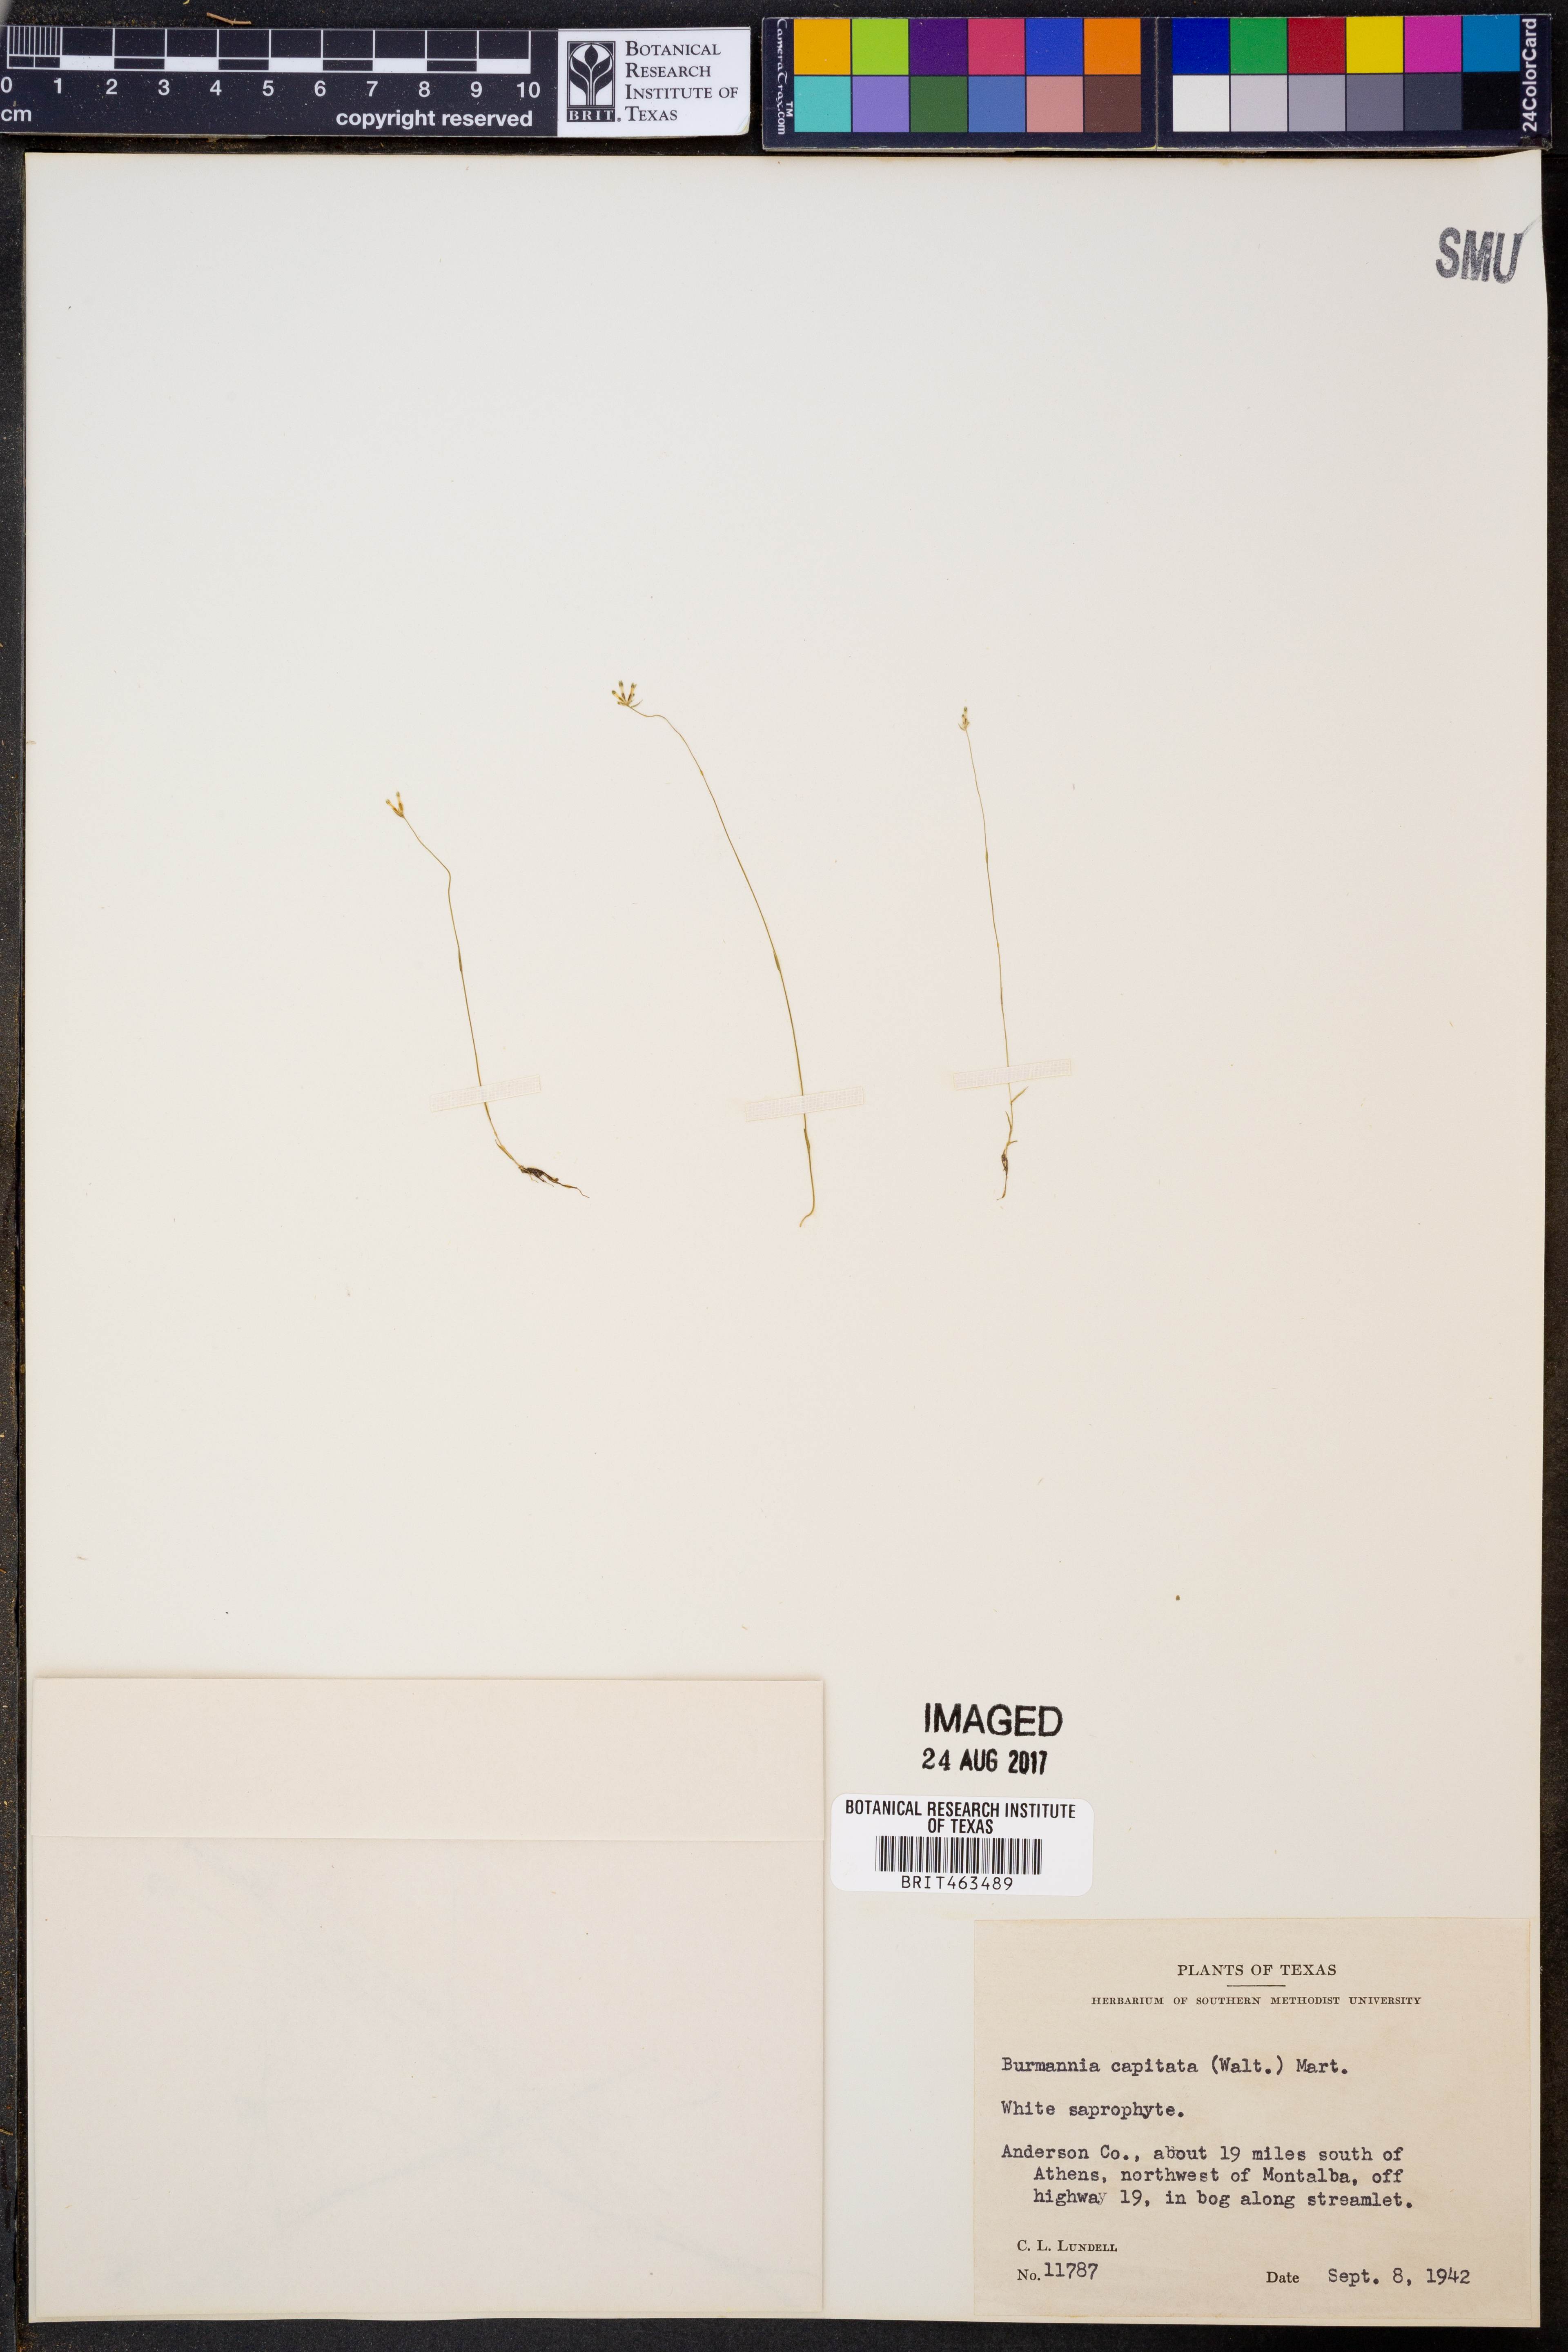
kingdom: Plantae
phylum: Tracheophyta
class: Liliopsida
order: Dioscoreales
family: Burmanniaceae
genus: Burmannia
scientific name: Burmannia capitata
